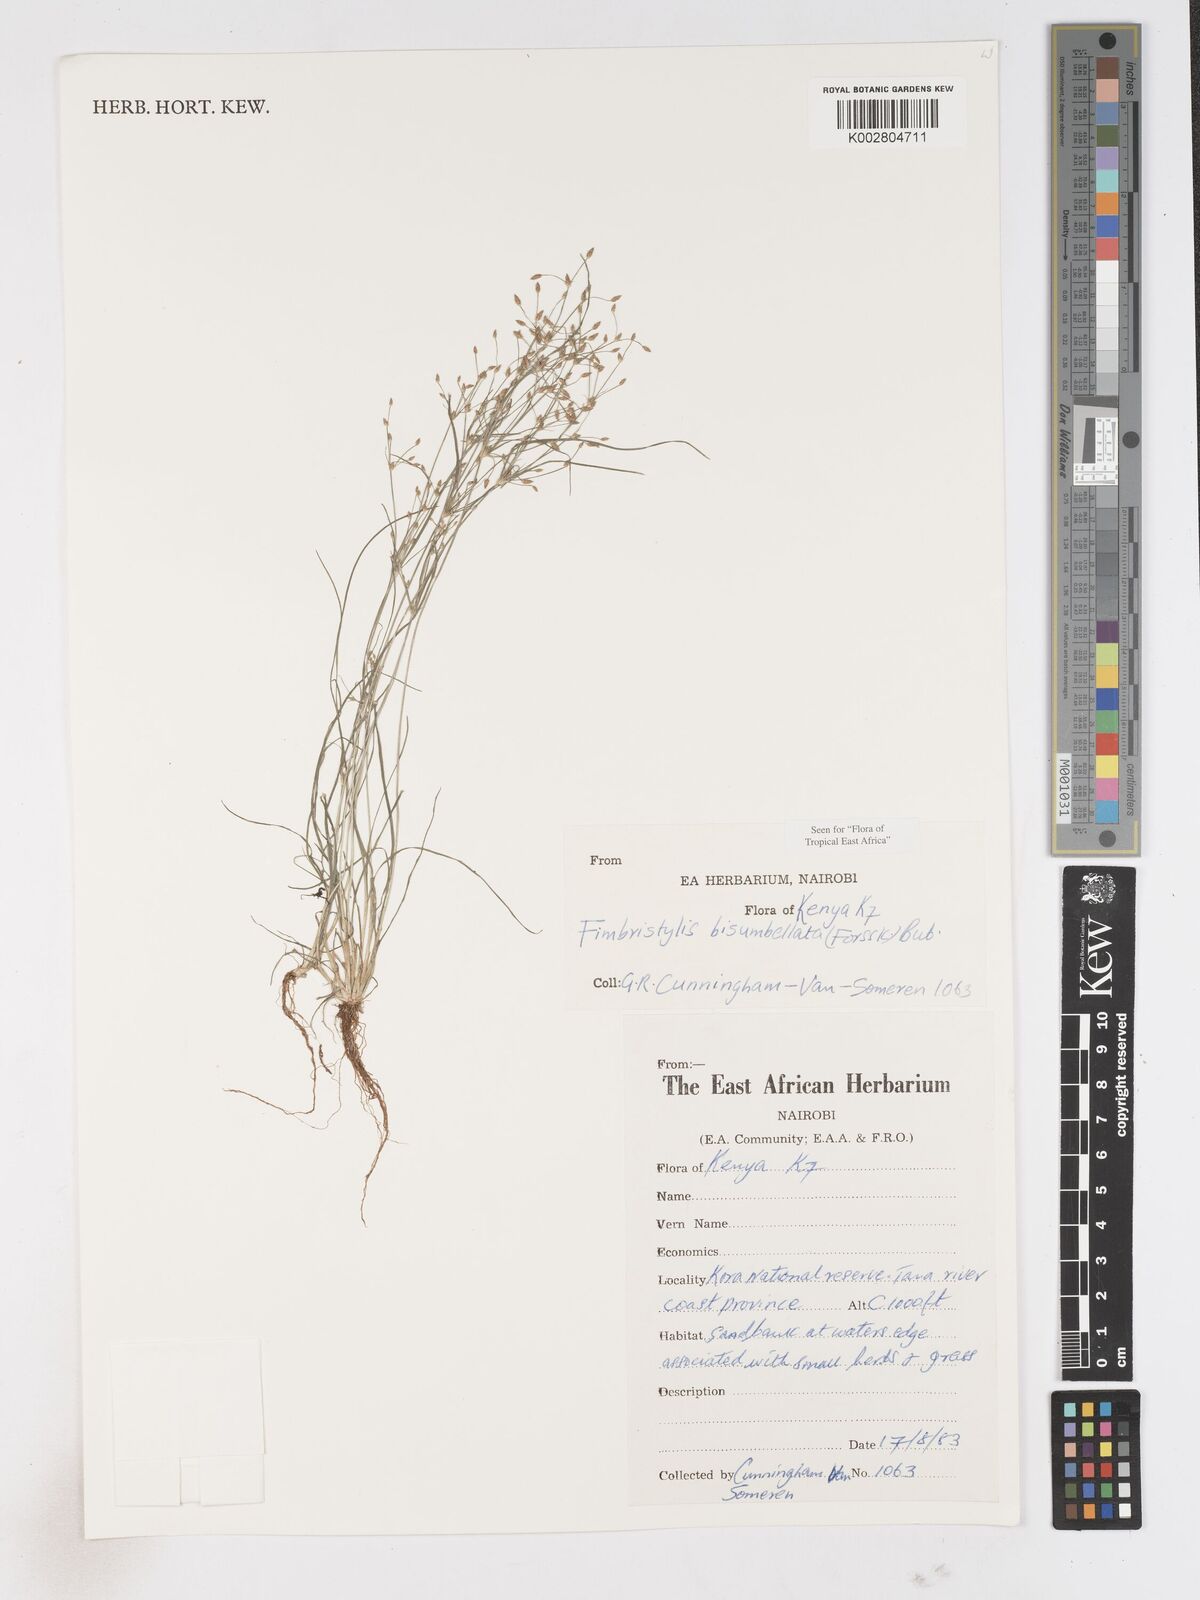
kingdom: Plantae
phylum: Tracheophyta
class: Liliopsida
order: Poales
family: Cyperaceae
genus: Fimbristylis
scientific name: Fimbristylis bisumbellata
